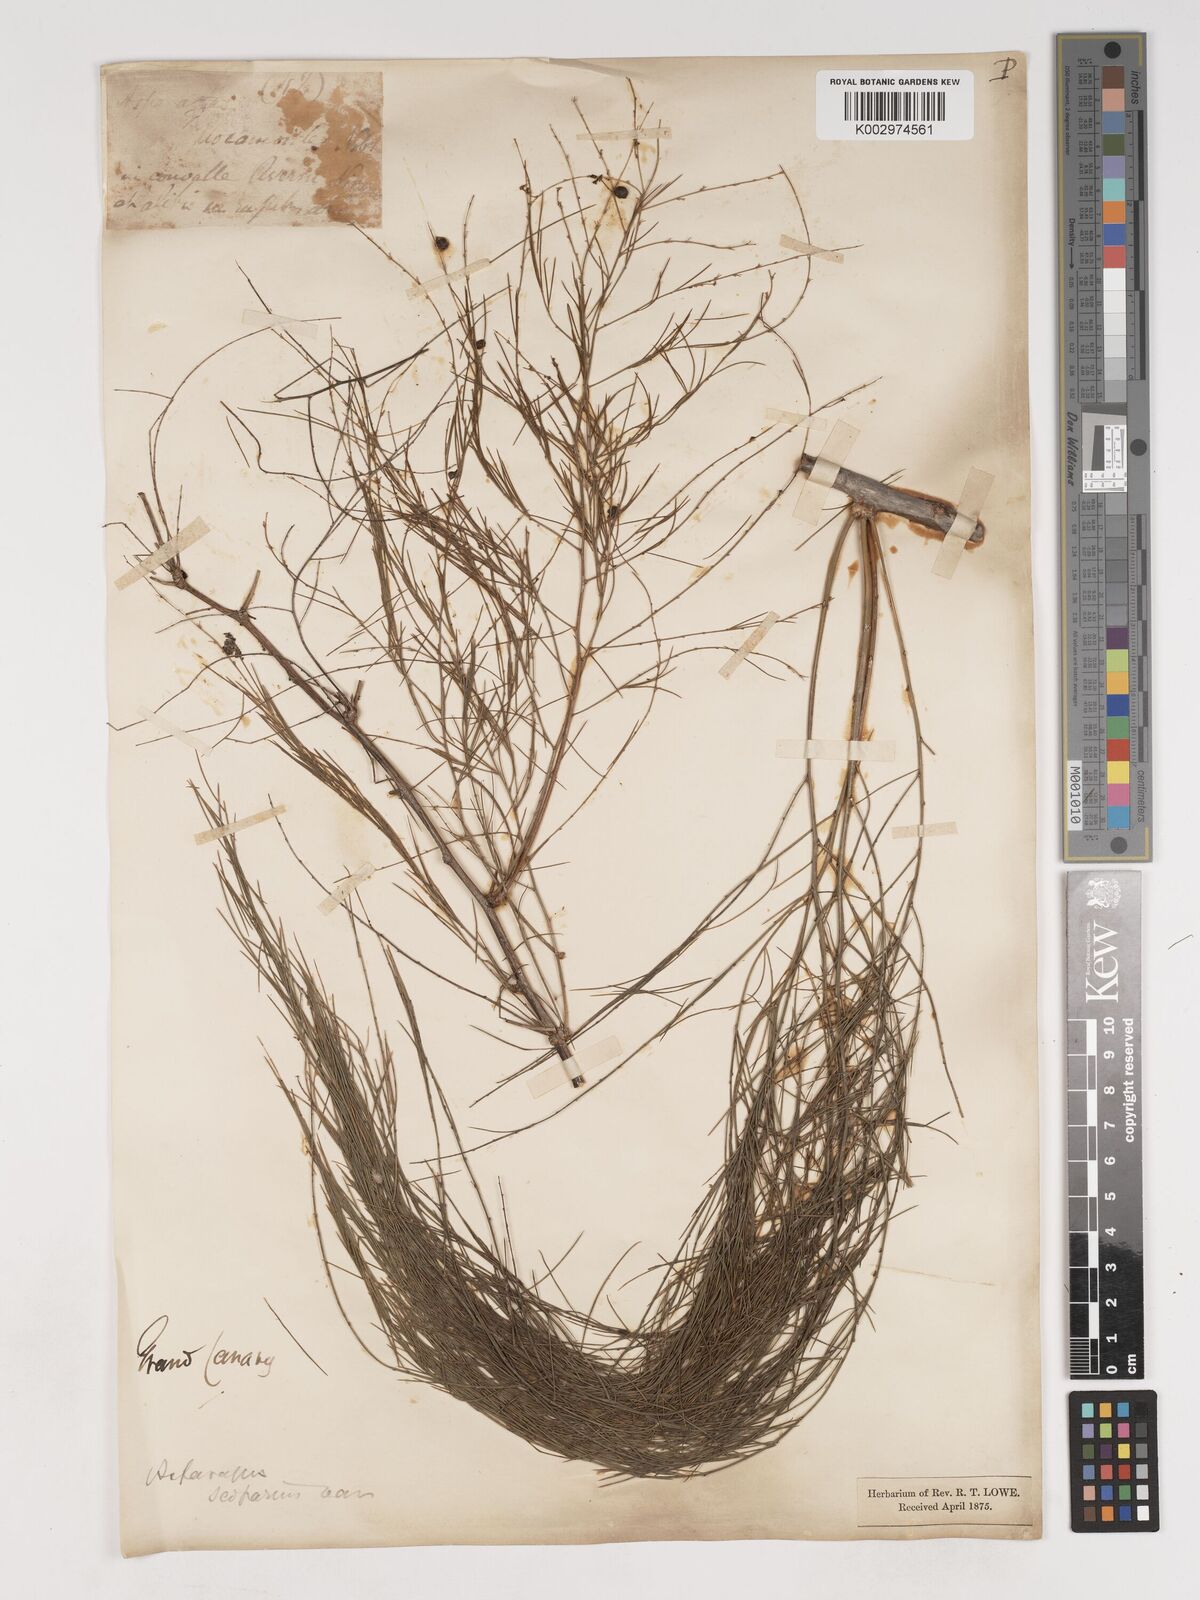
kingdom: Plantae
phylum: Tracheophyta
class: Liliopsida
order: Asparagales
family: Asparagaceae
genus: Asparagus
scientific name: Asparagus scoparius
